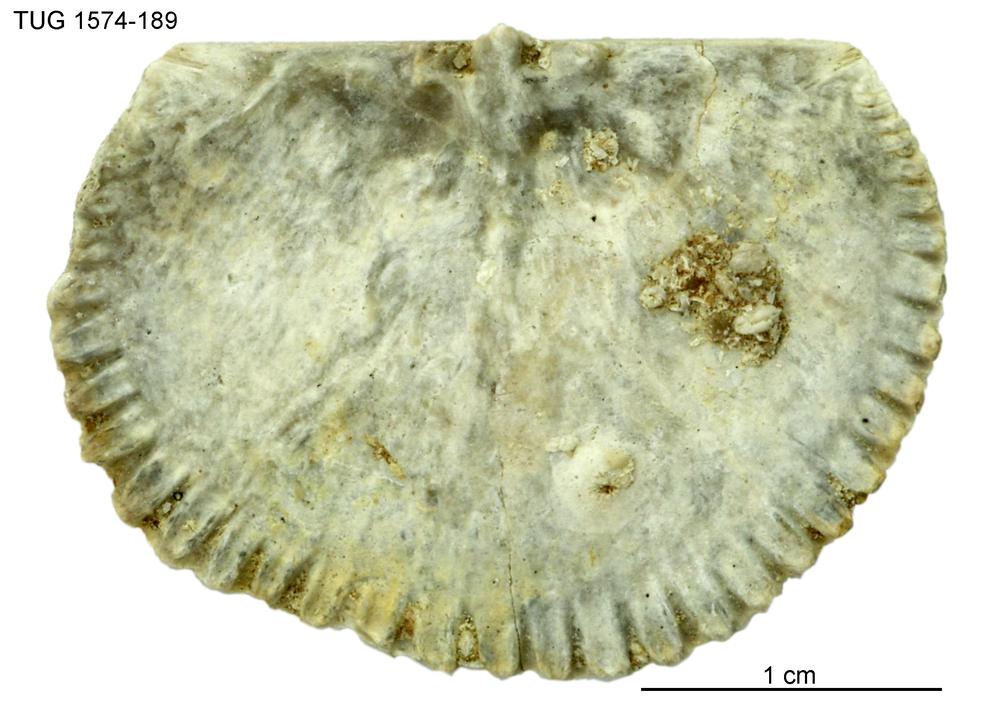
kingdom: Animalia
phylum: Brachiopoda
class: Rhynchonellata
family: Orthidae
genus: Cyrtonotella
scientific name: Cyrtonotella Orthis kuckersiana
